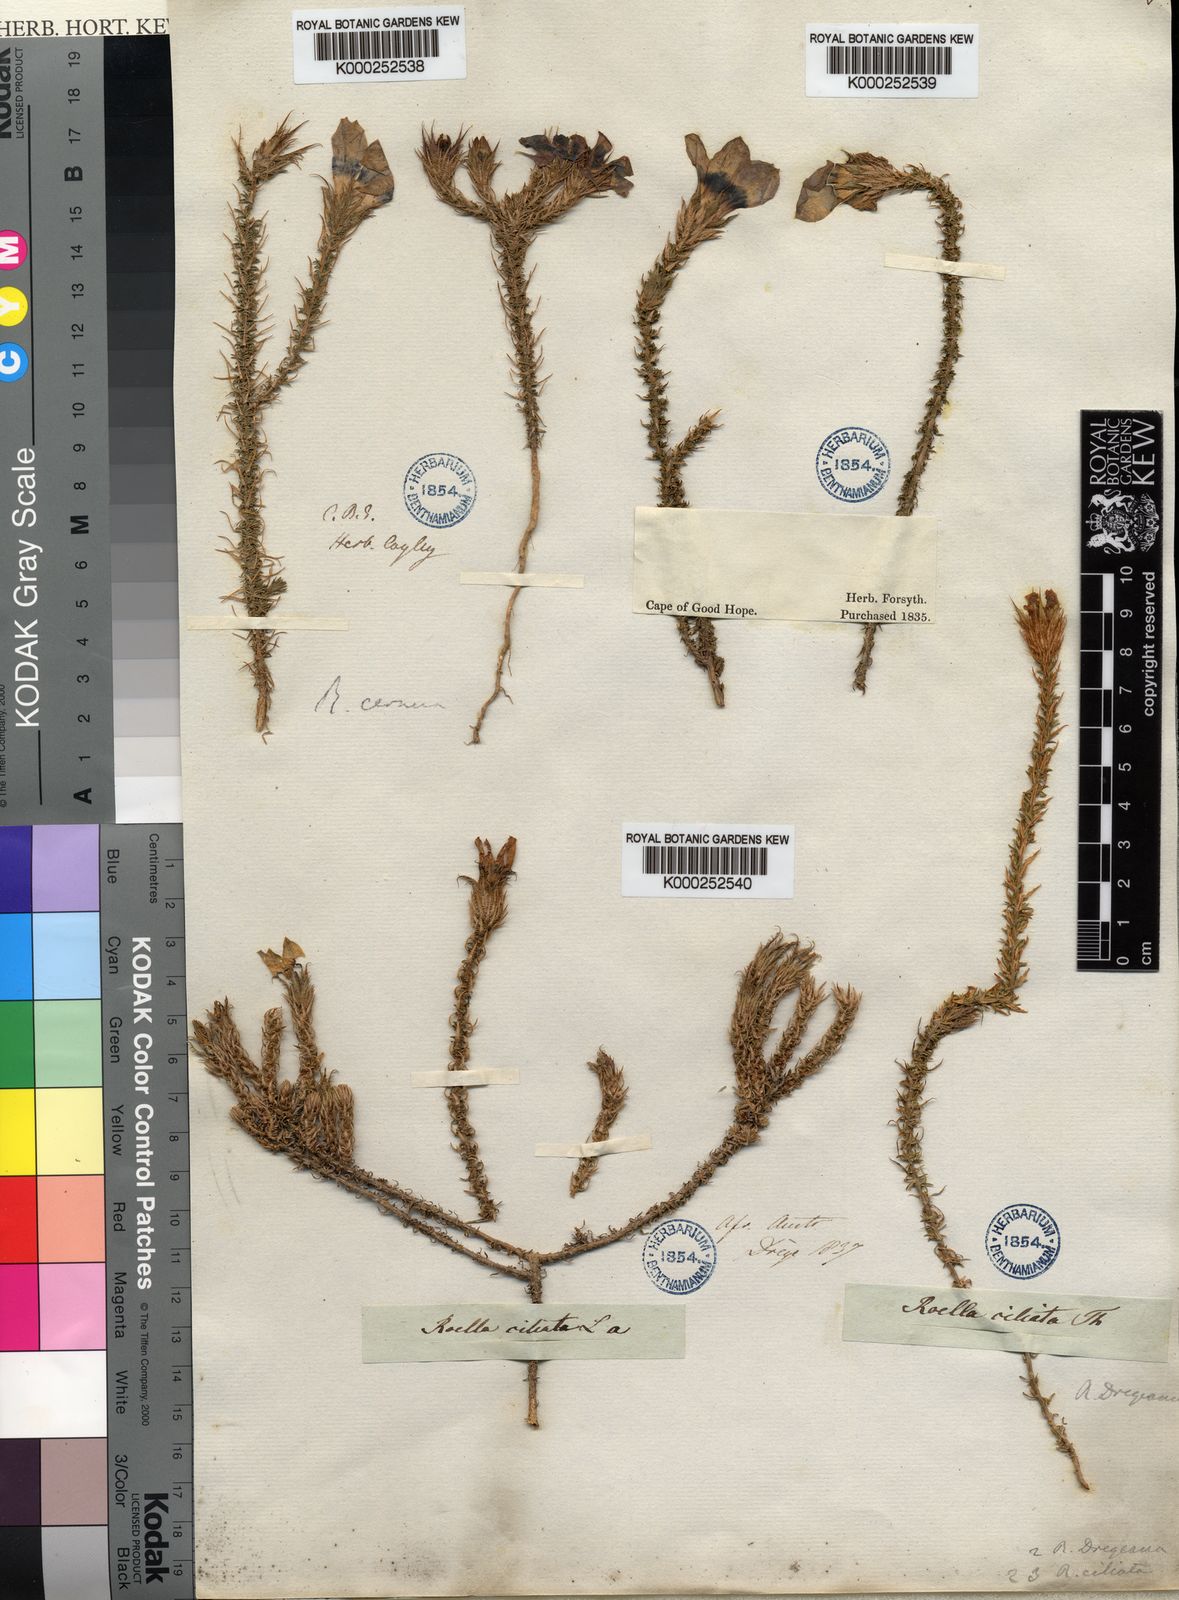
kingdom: Plantae
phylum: Tracheophyta
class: Magnoliopsida
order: Asterales
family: Campanulaceae
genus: Roella
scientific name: Roella ciliata
